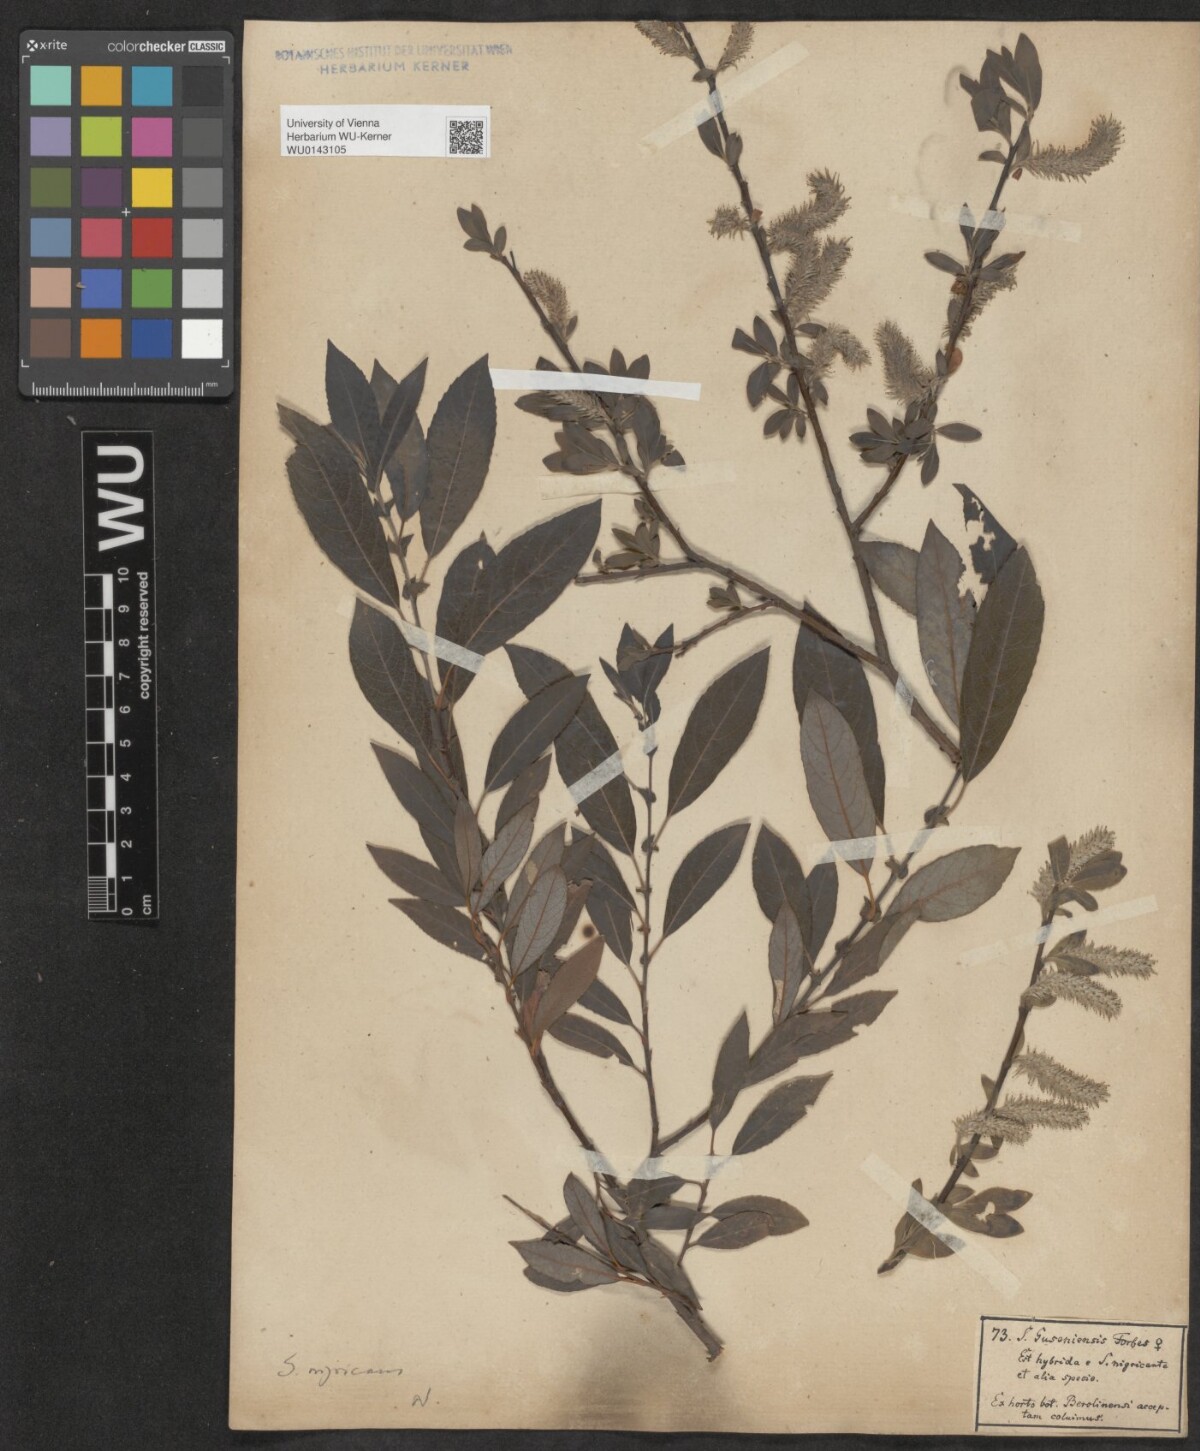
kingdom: Plantae
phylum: Tracheophyta
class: Magnoliopsida
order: Malpighiales
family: Salicaceae
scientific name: Salicaceae
